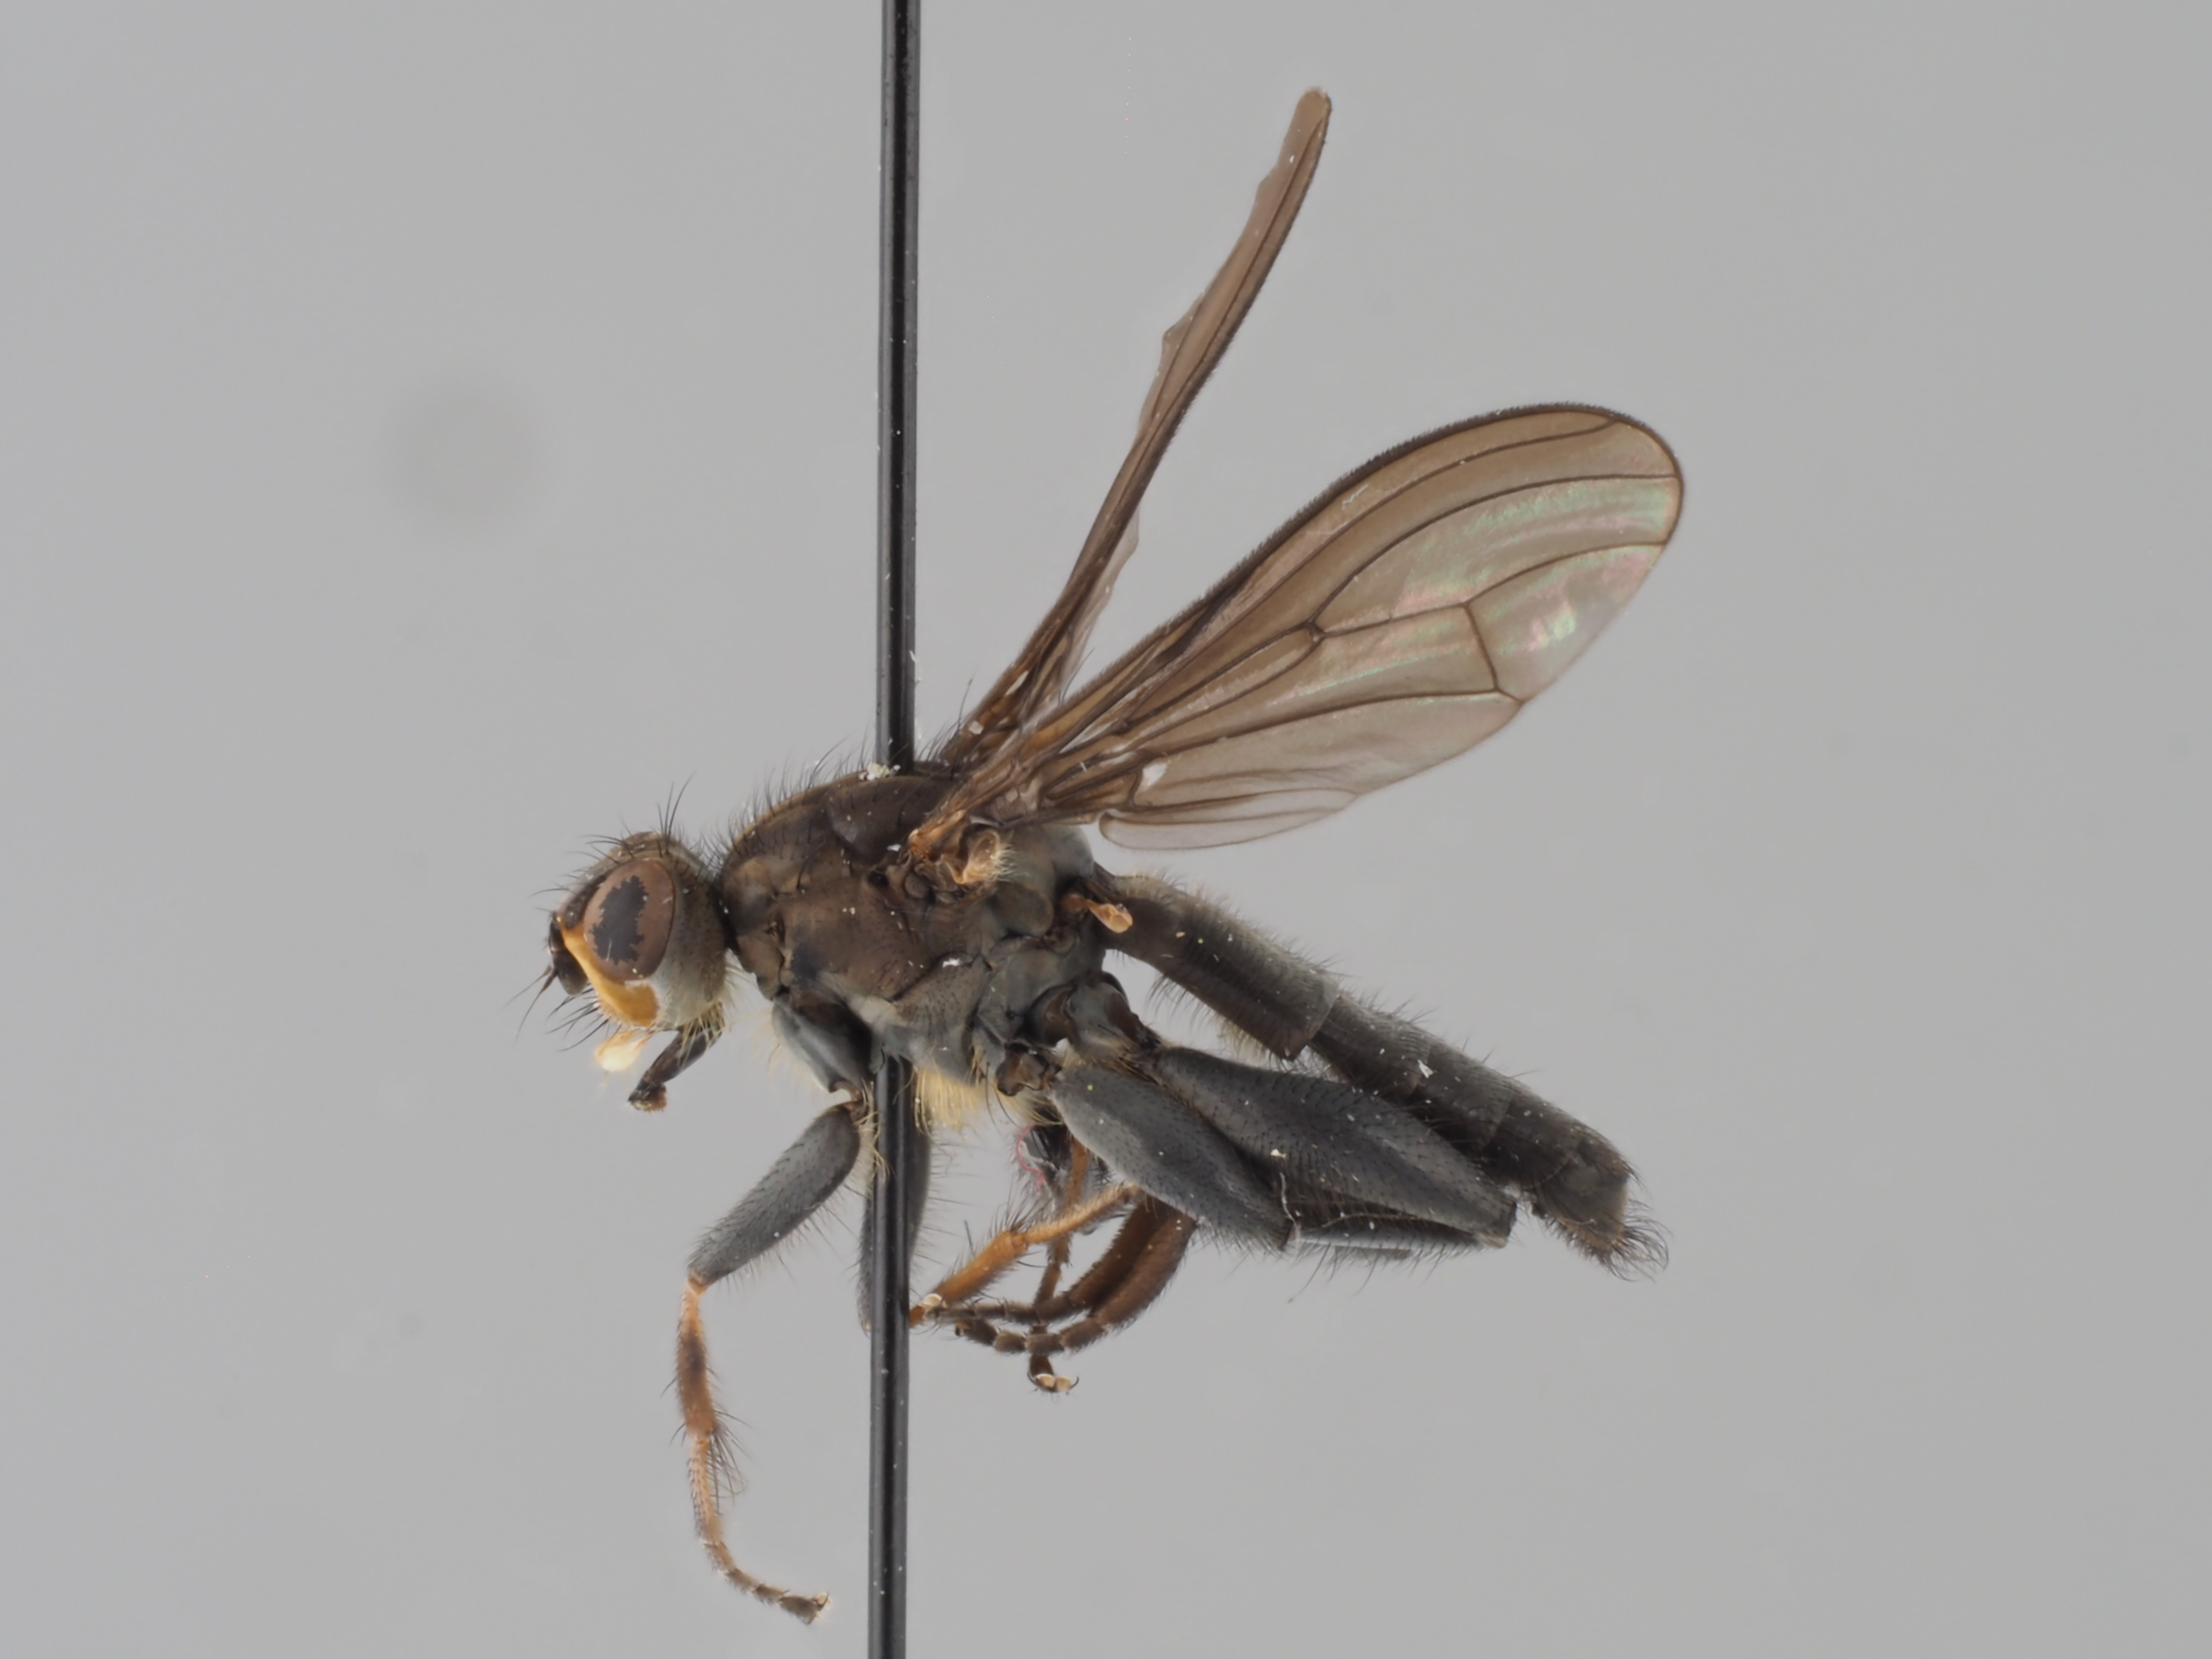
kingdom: Animalia
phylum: Arthropoda
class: Insecta
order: Diptera
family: Scathophagidae
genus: Staegeria
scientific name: Staegeria kunzei
